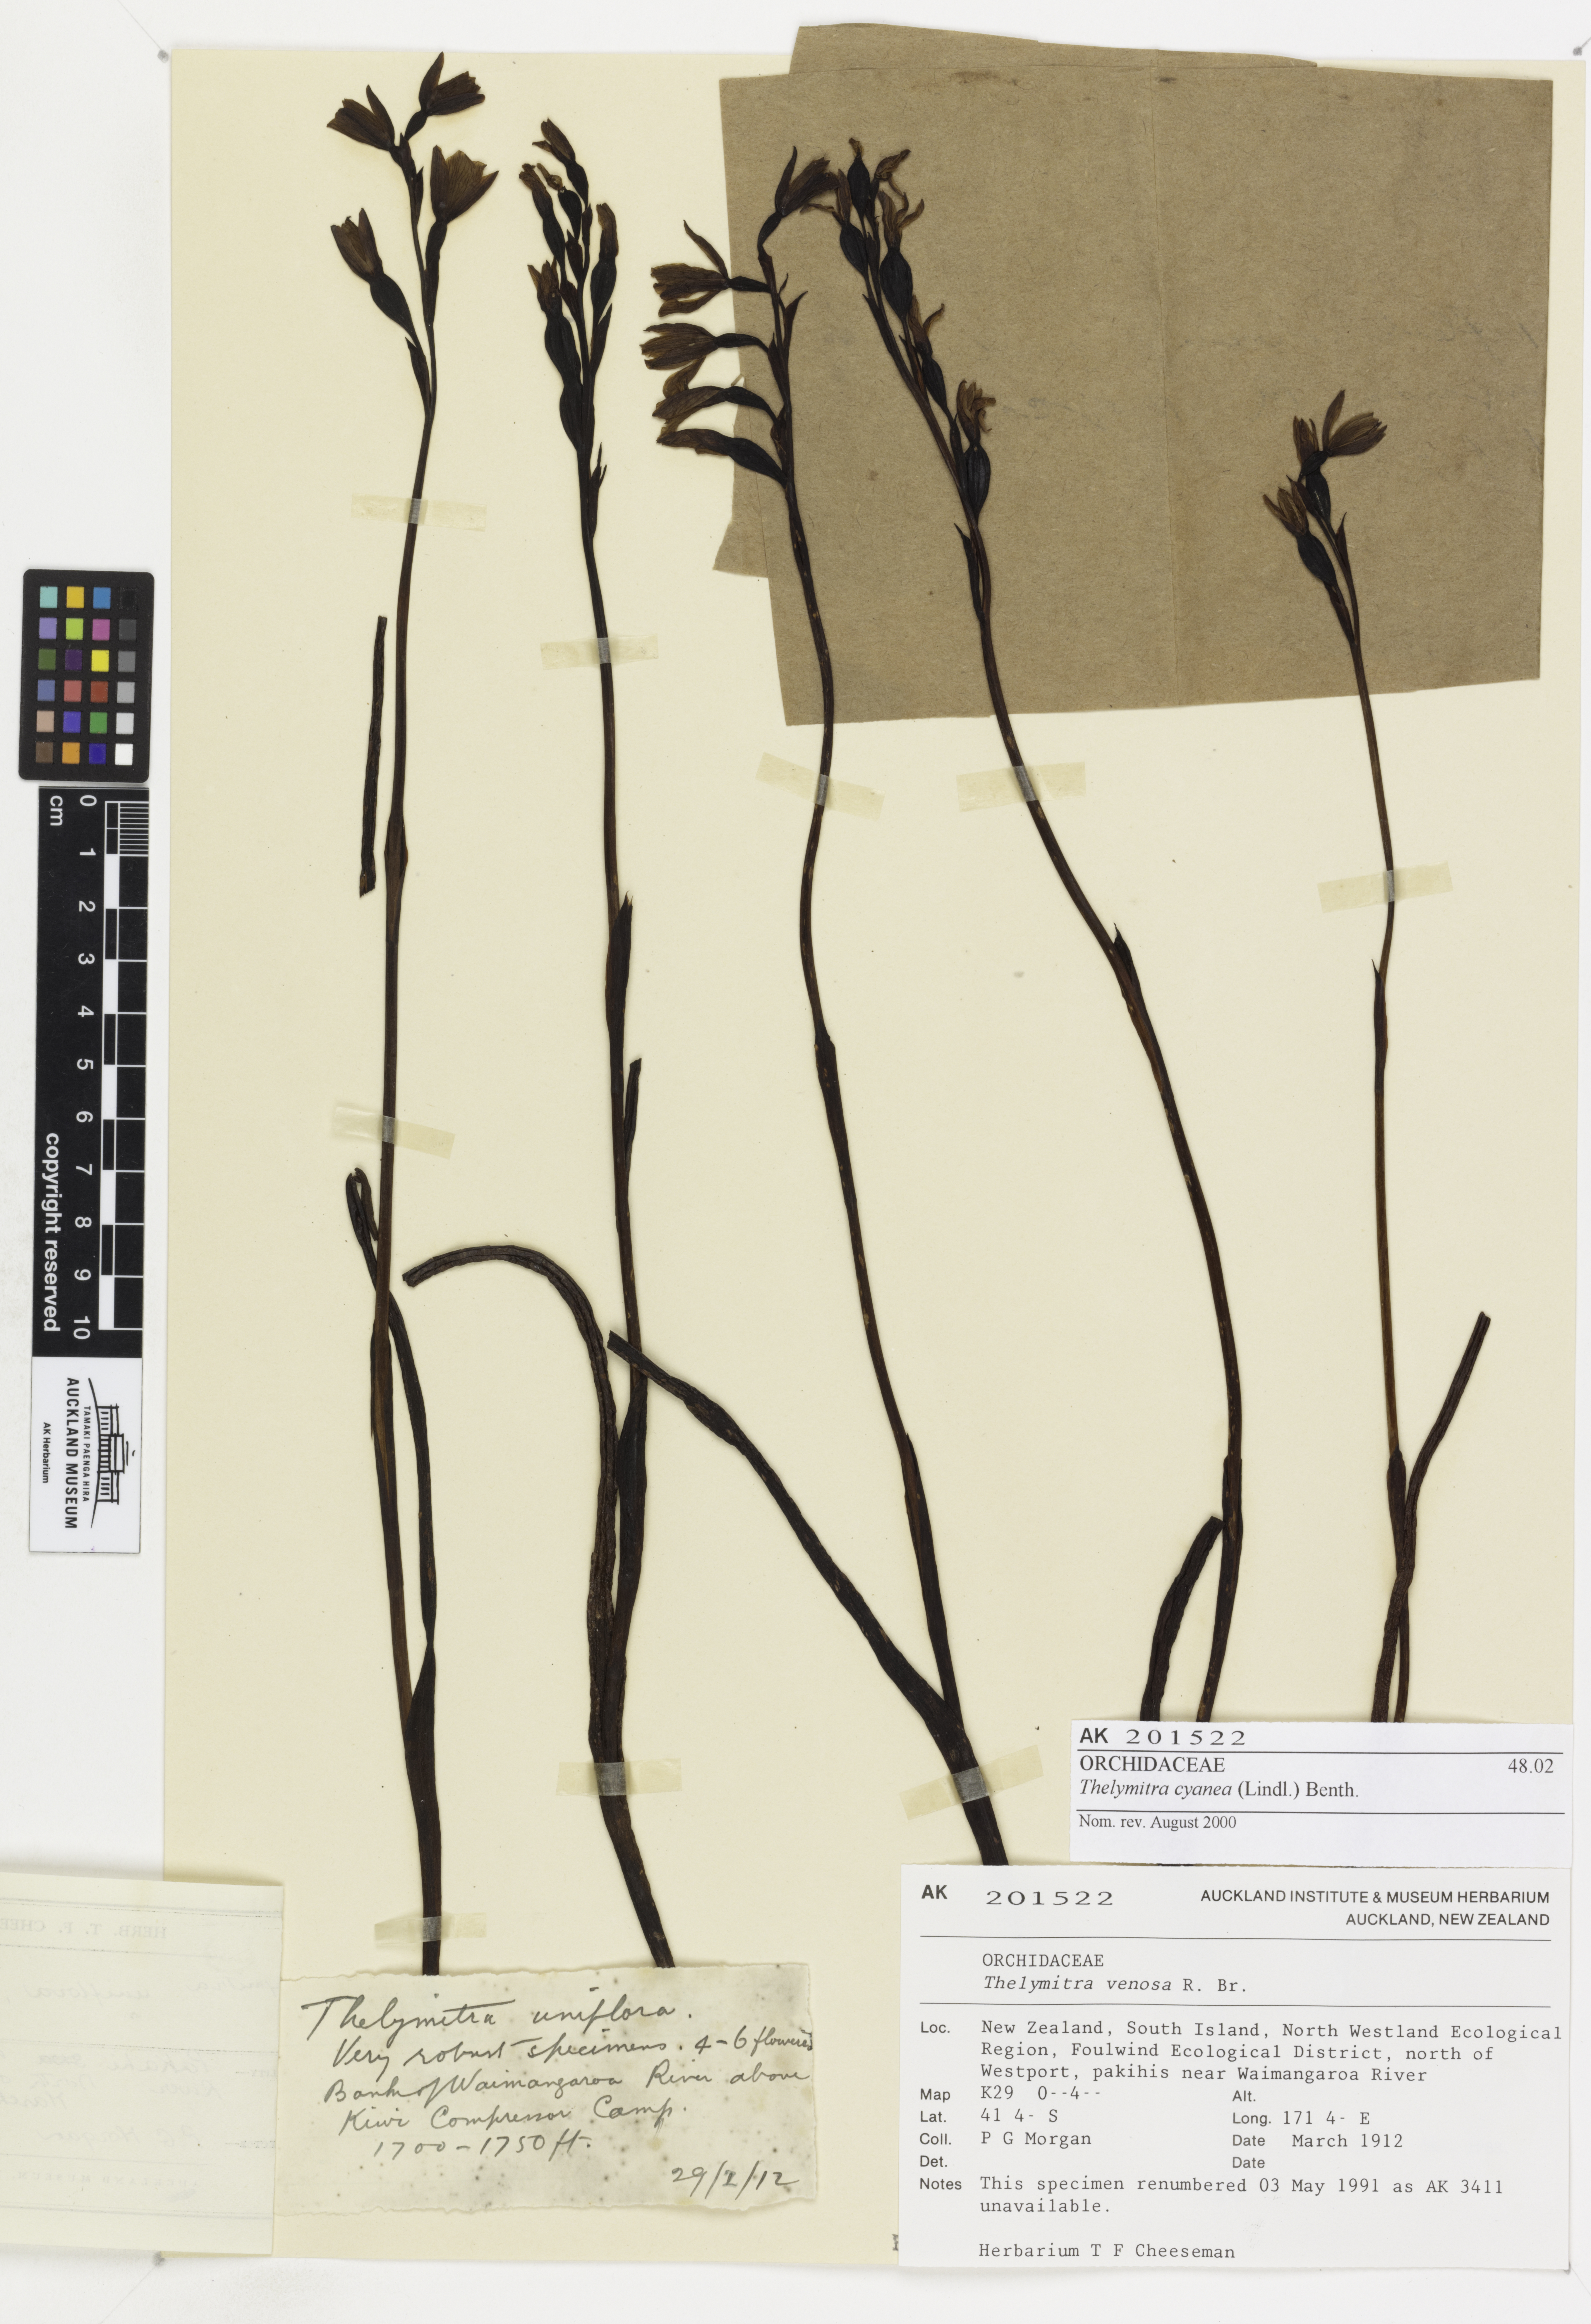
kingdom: Plantae
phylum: Tracheophyta
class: Liliopsida
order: Asparagales
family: Orchidaceae
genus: Thelymitra
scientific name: Thelymitra cyanea
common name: Blue sun-orchid
